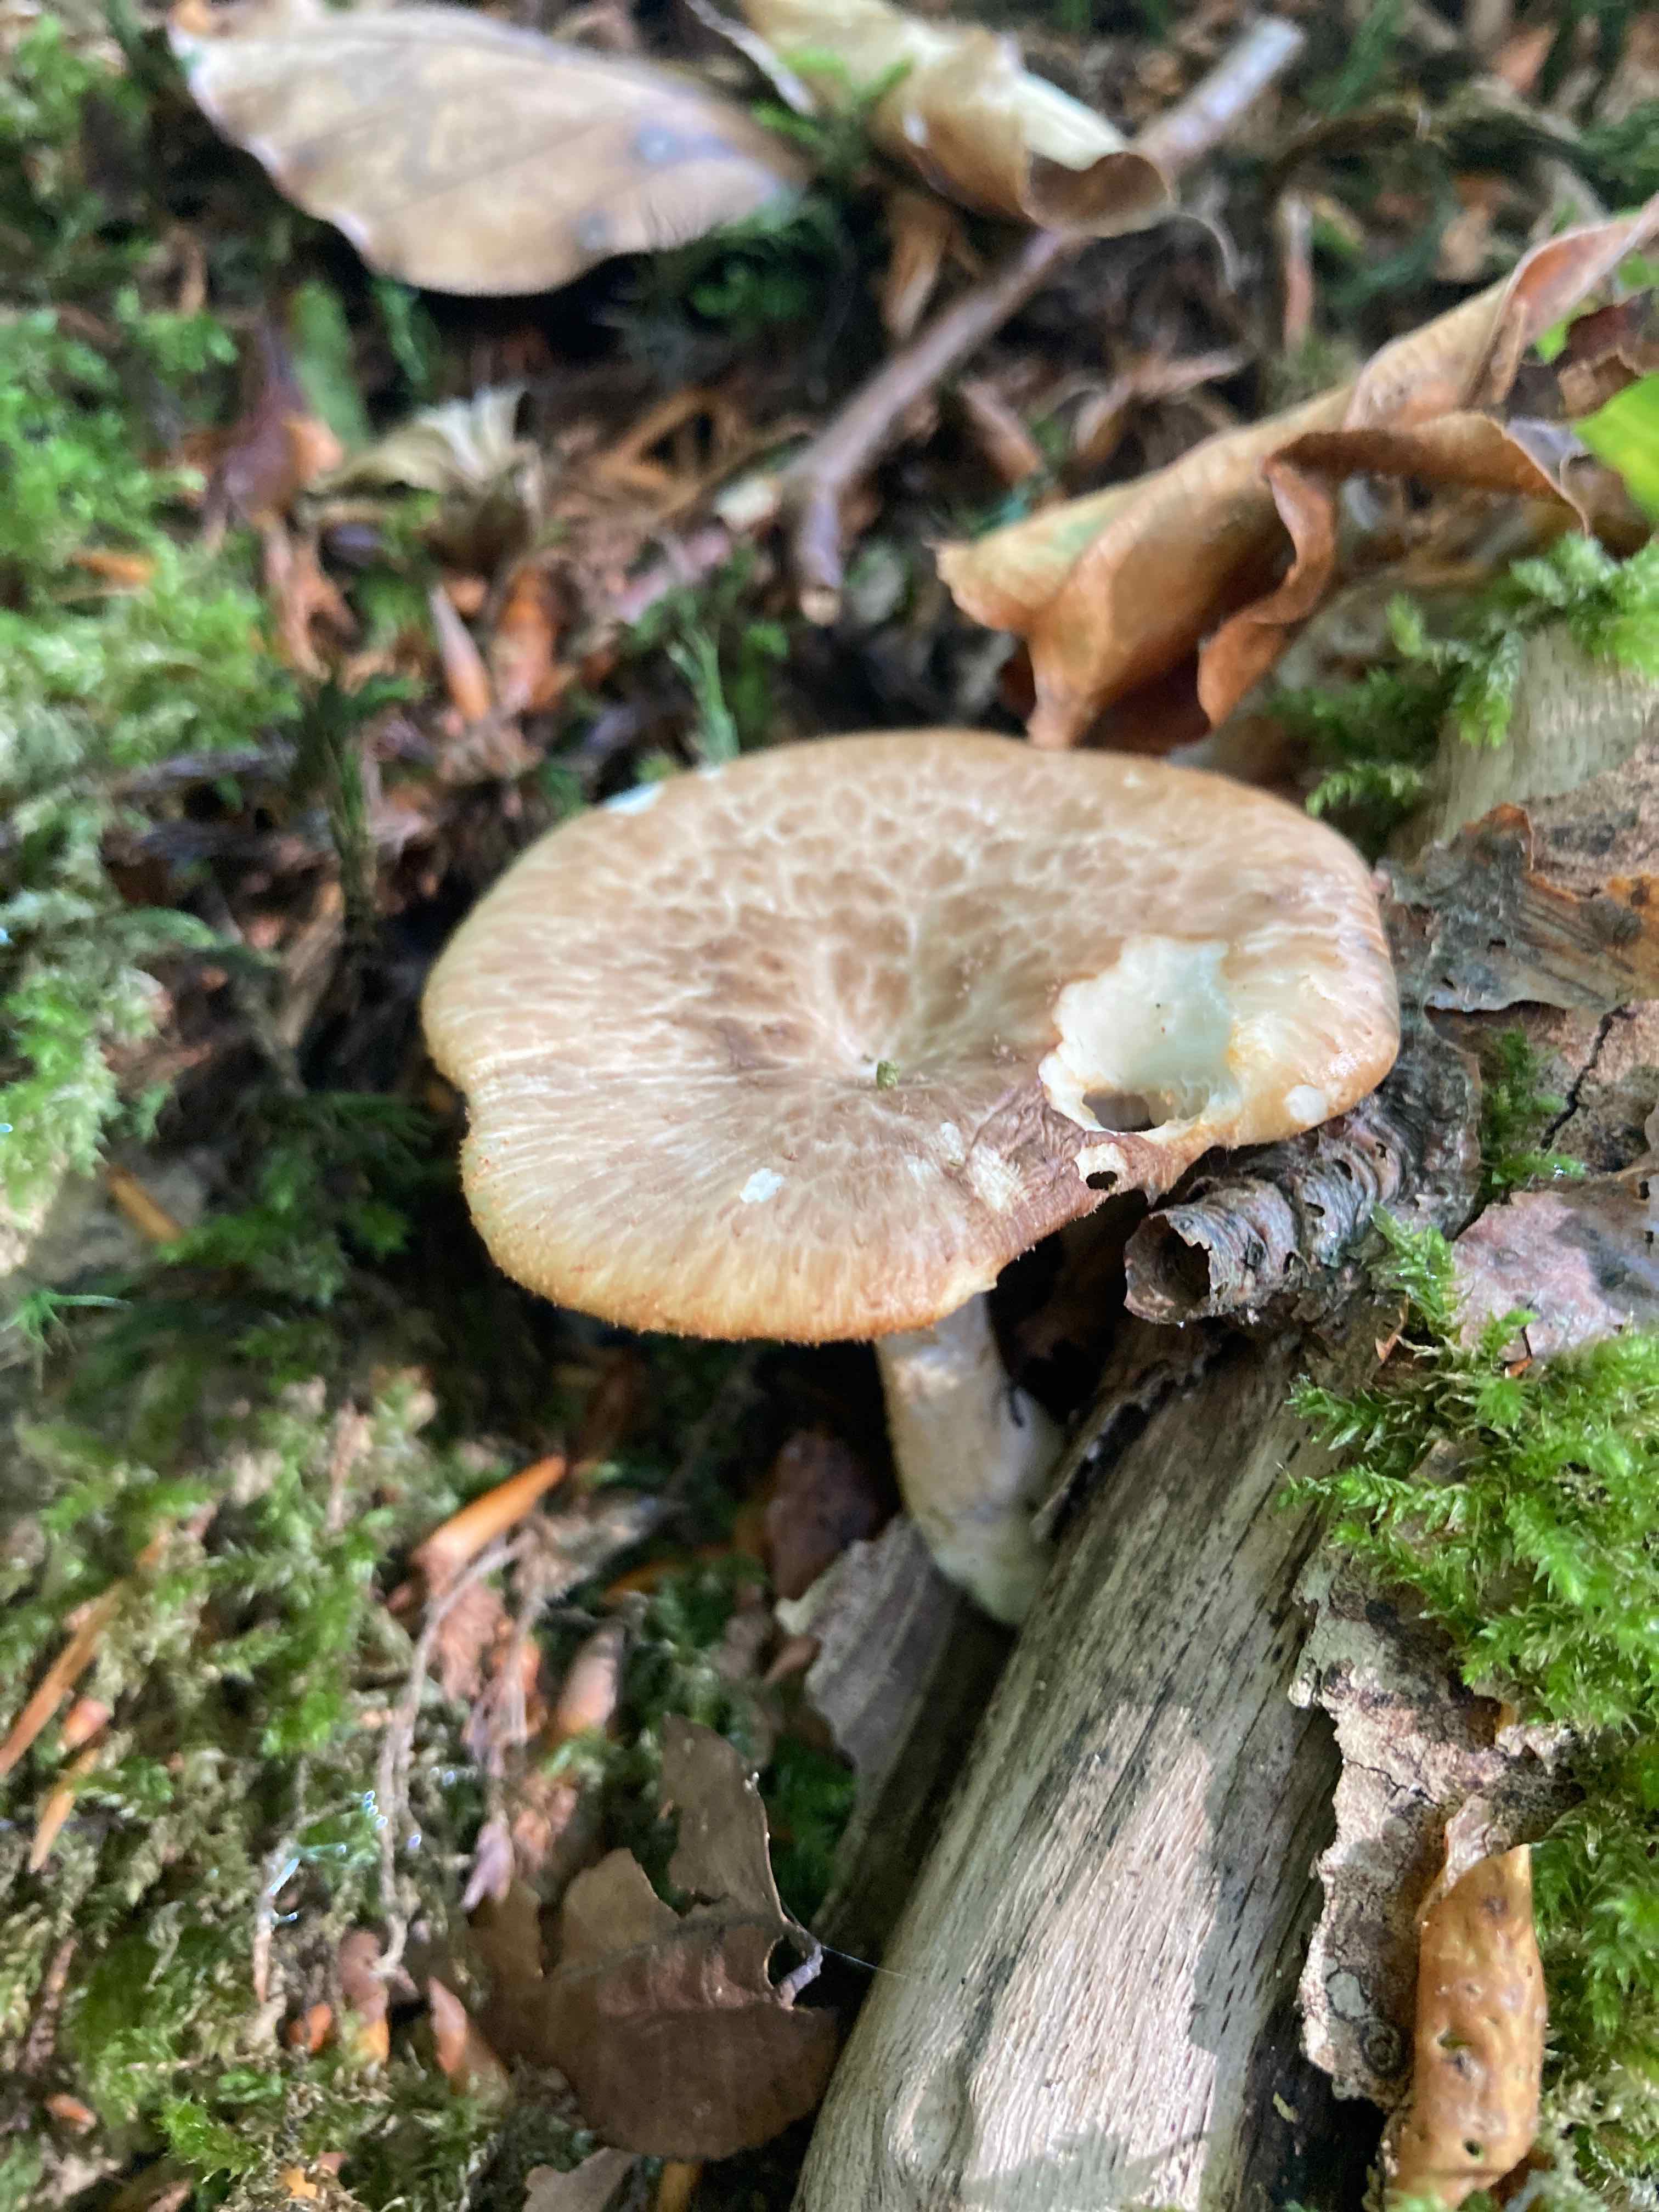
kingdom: Fungi
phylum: Basidiomycota
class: Agaricomycetes
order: Polyporales
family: Polyporaceae
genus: Polyporus
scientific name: Polyporus tuberaster
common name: knoldet stilkporesvamp
